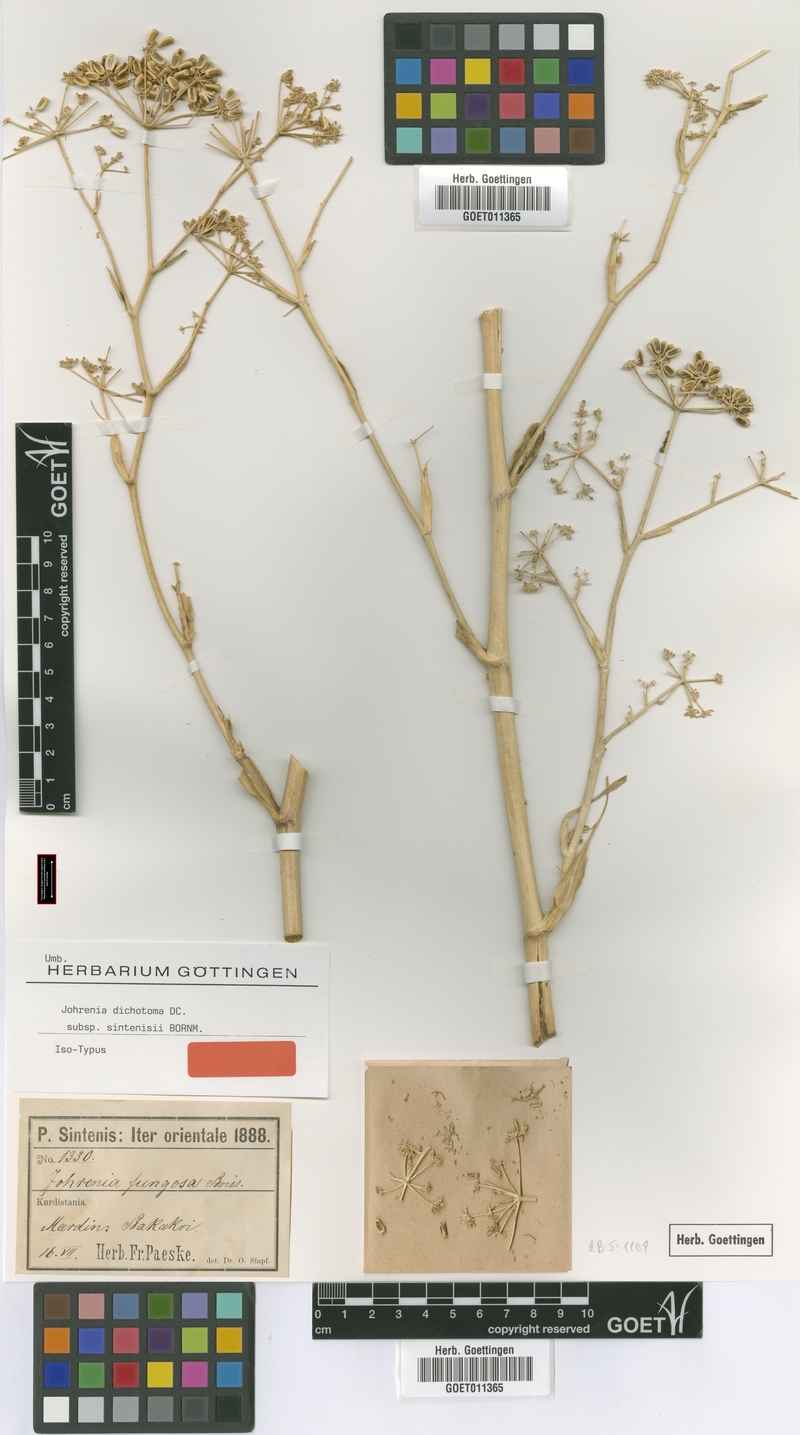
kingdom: Plantae
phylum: Tracheophyta
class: Magnoliopsida
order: Apiales
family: Apiaceae
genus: Johrenia
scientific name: Johrenia dichotoma
